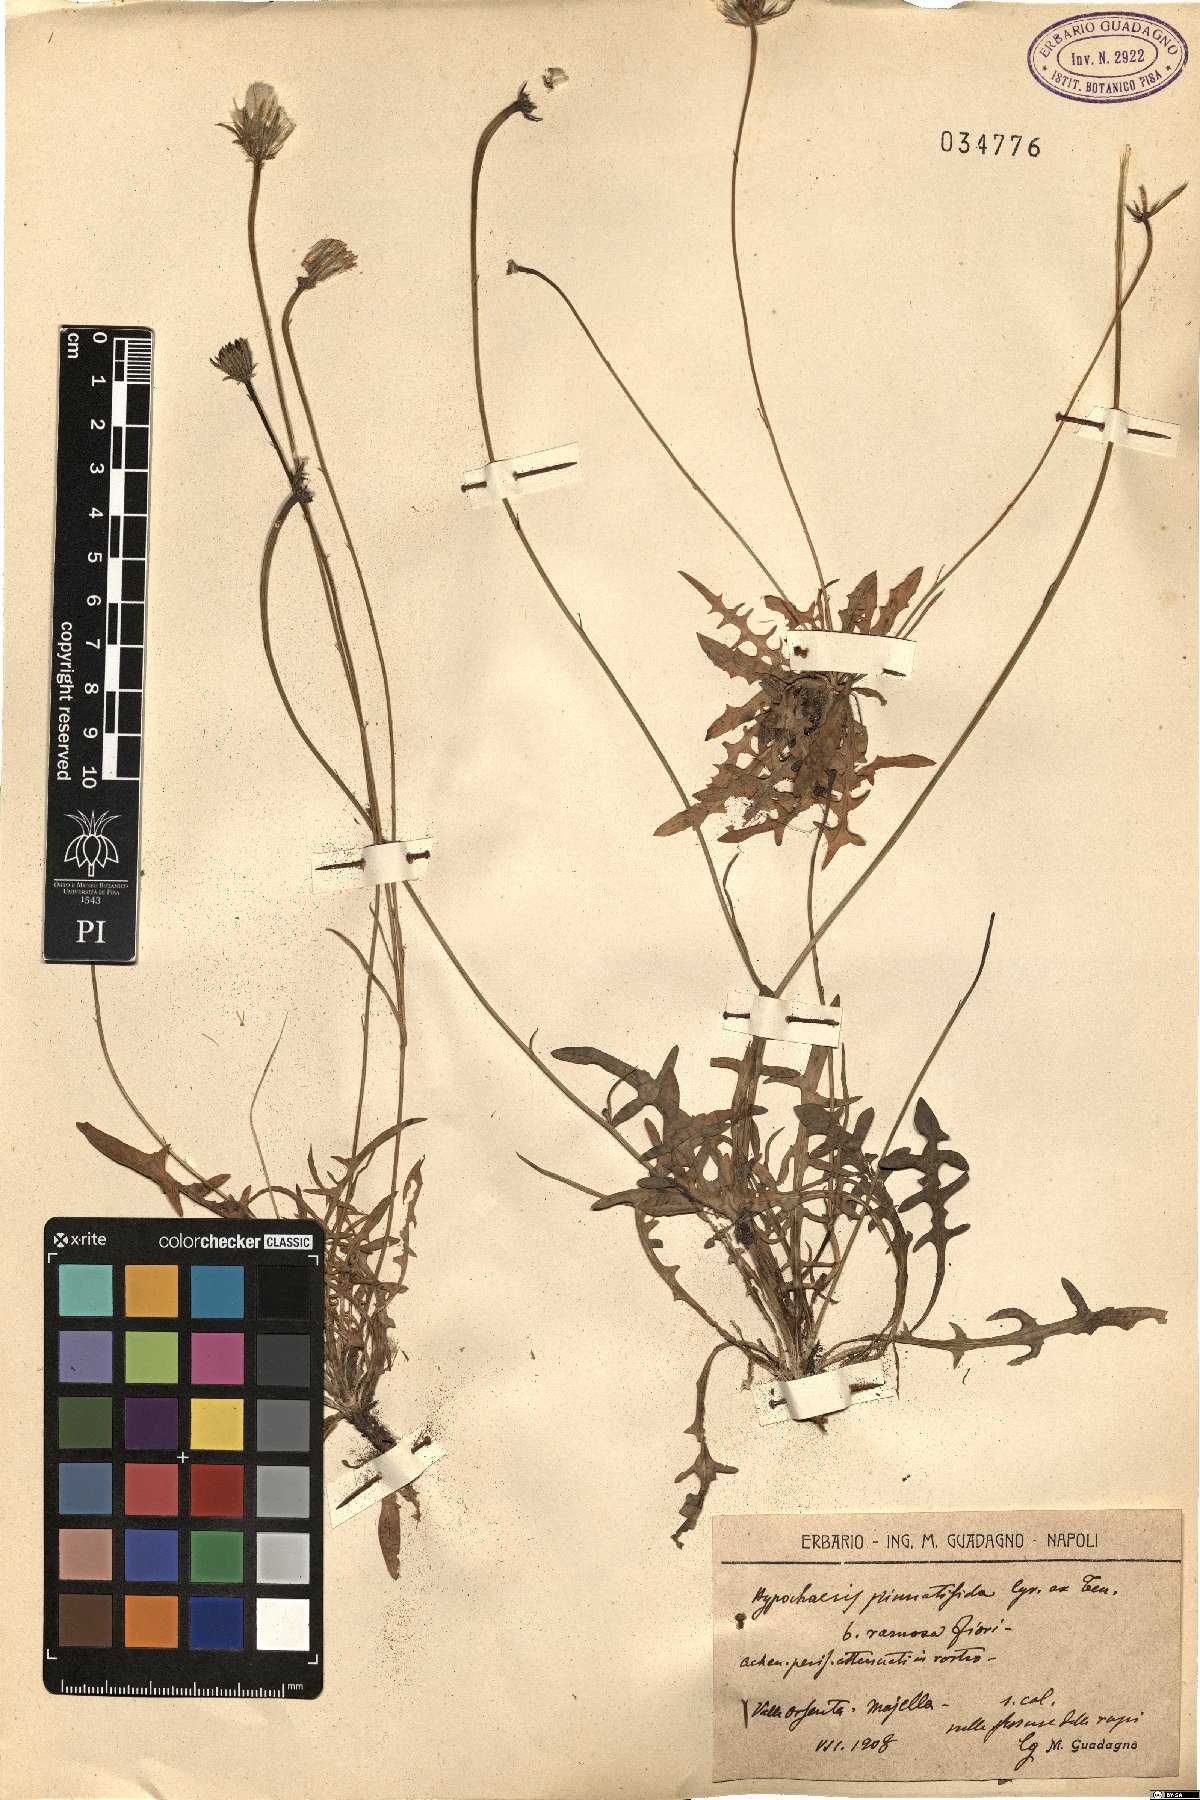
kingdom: Plantae
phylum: Tracheophyta
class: Magnoliopsida
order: Asterales
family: Asteraceae
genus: Hypochaeris
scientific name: Hypochaeris cretensis
